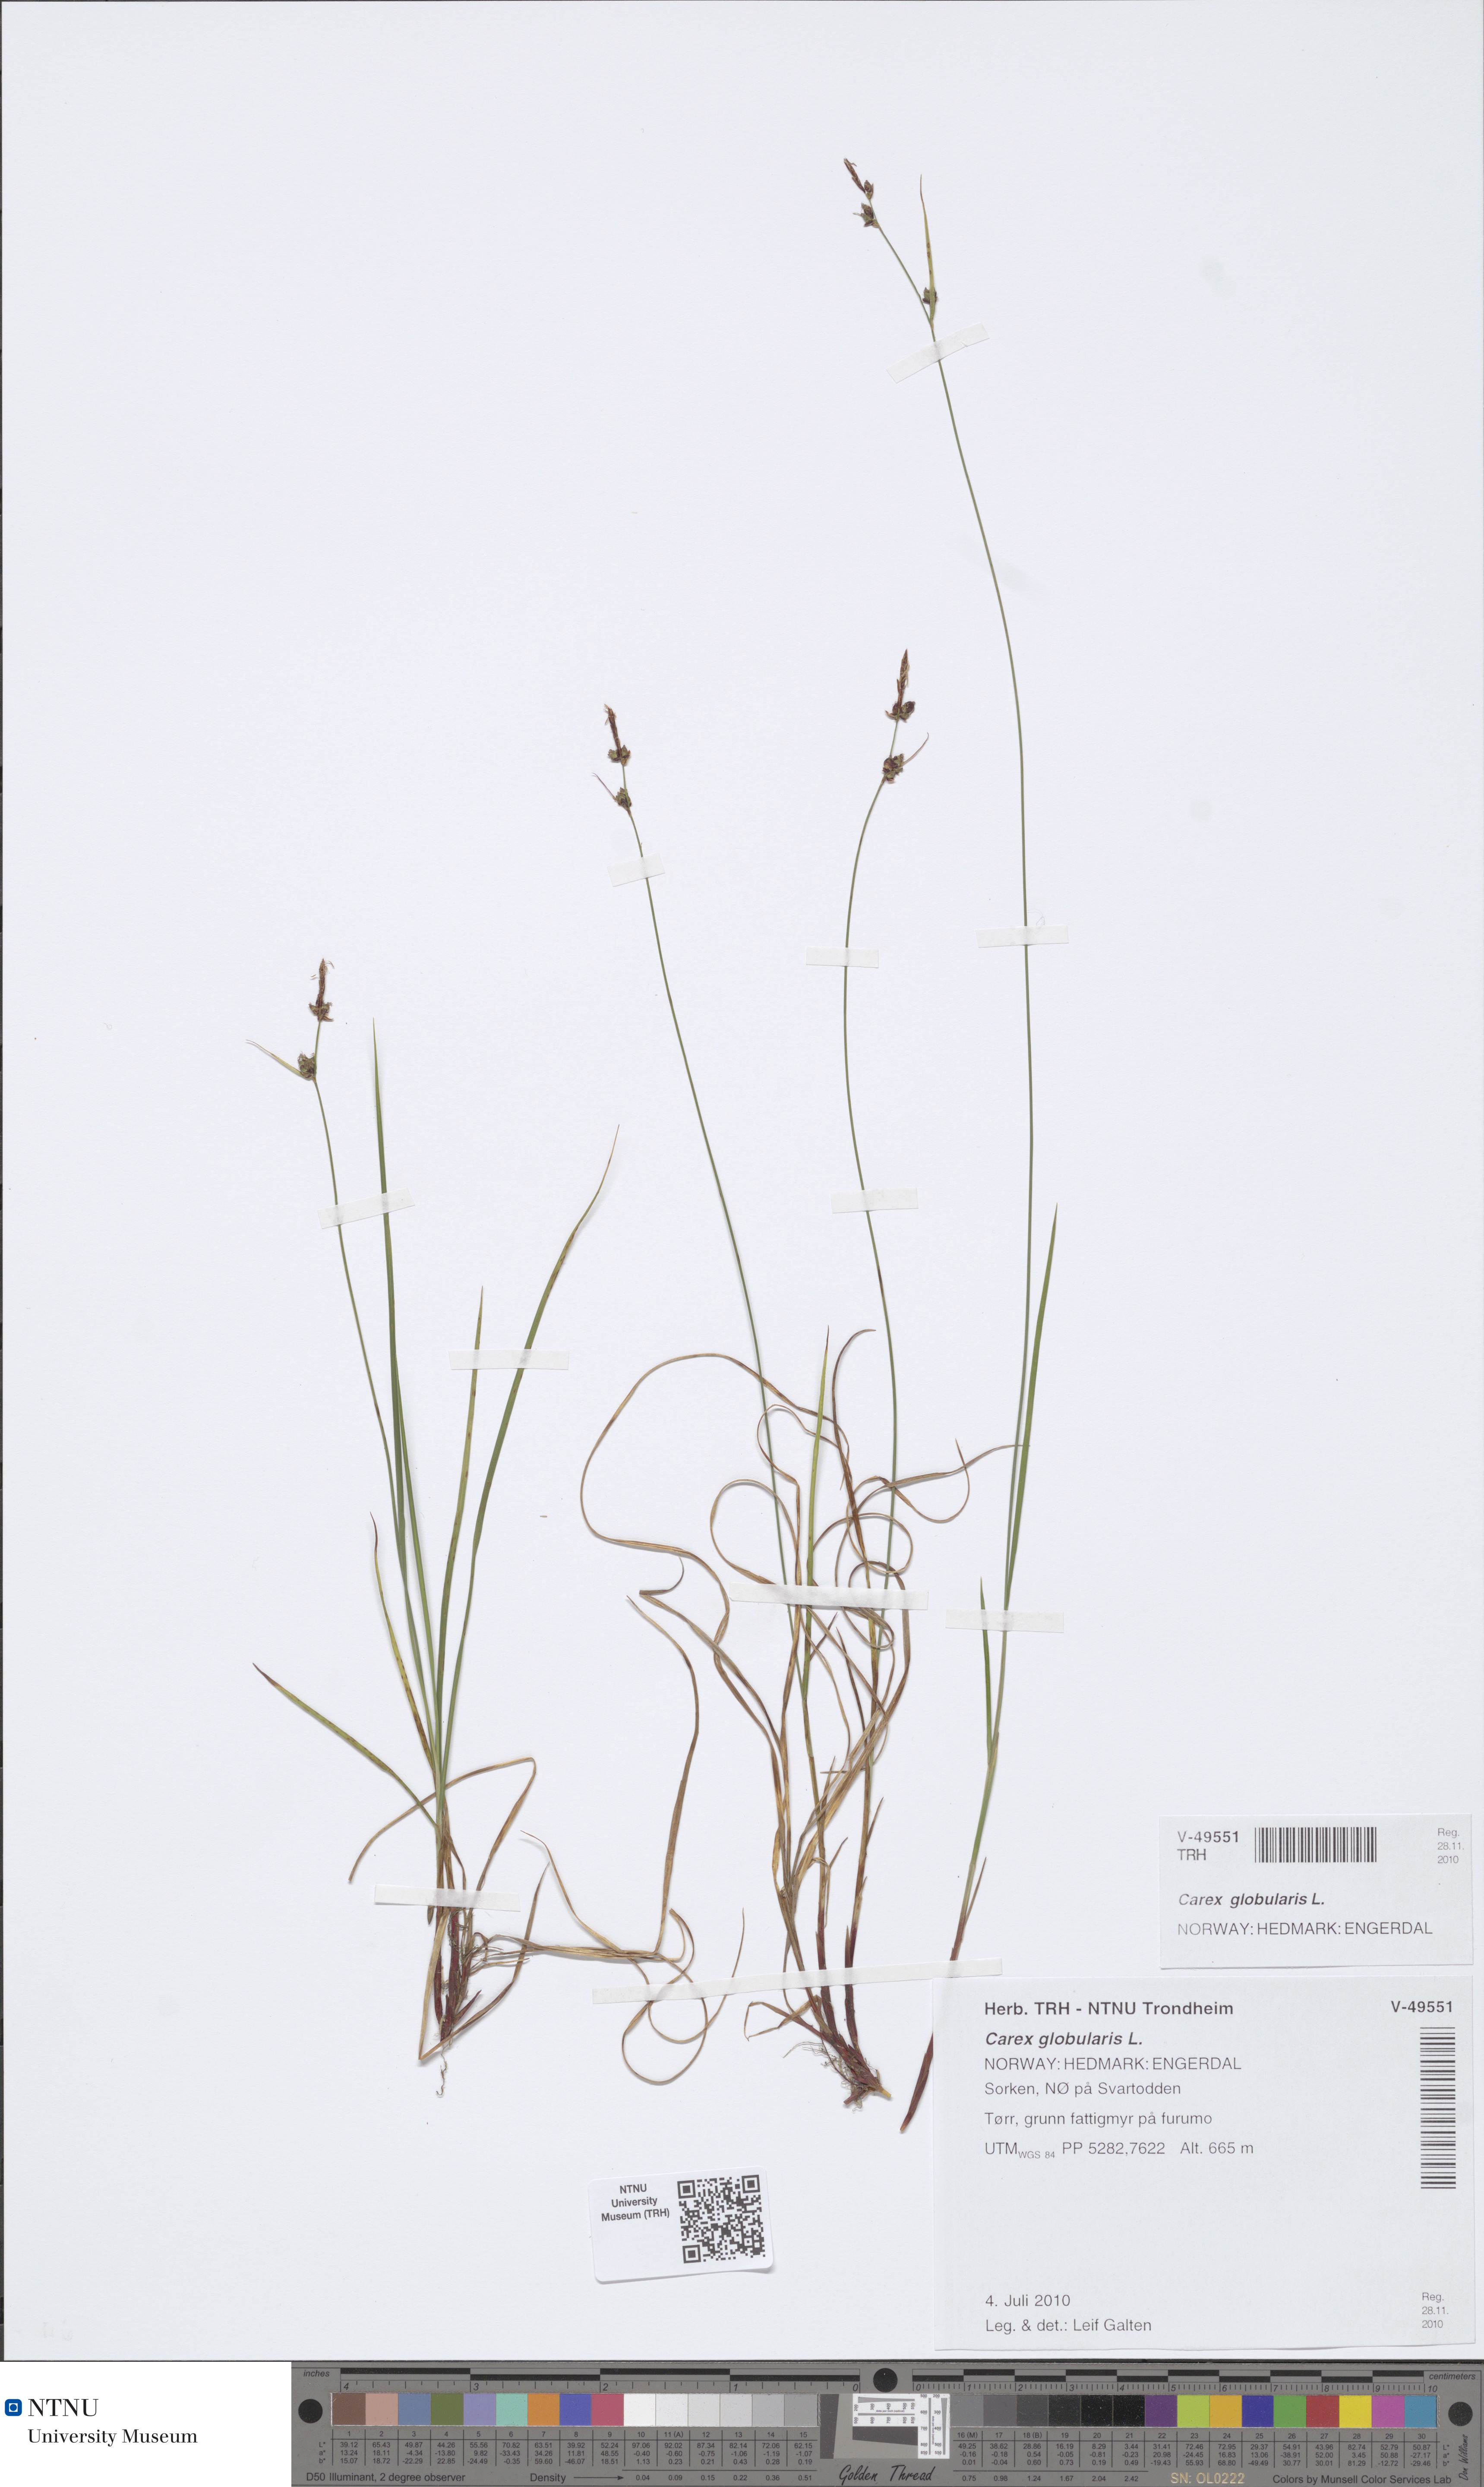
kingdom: Plantae
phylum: Tracheophyta
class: Liliopsida
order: Poales
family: Cyperaceae
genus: Carex
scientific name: Carex globularis
